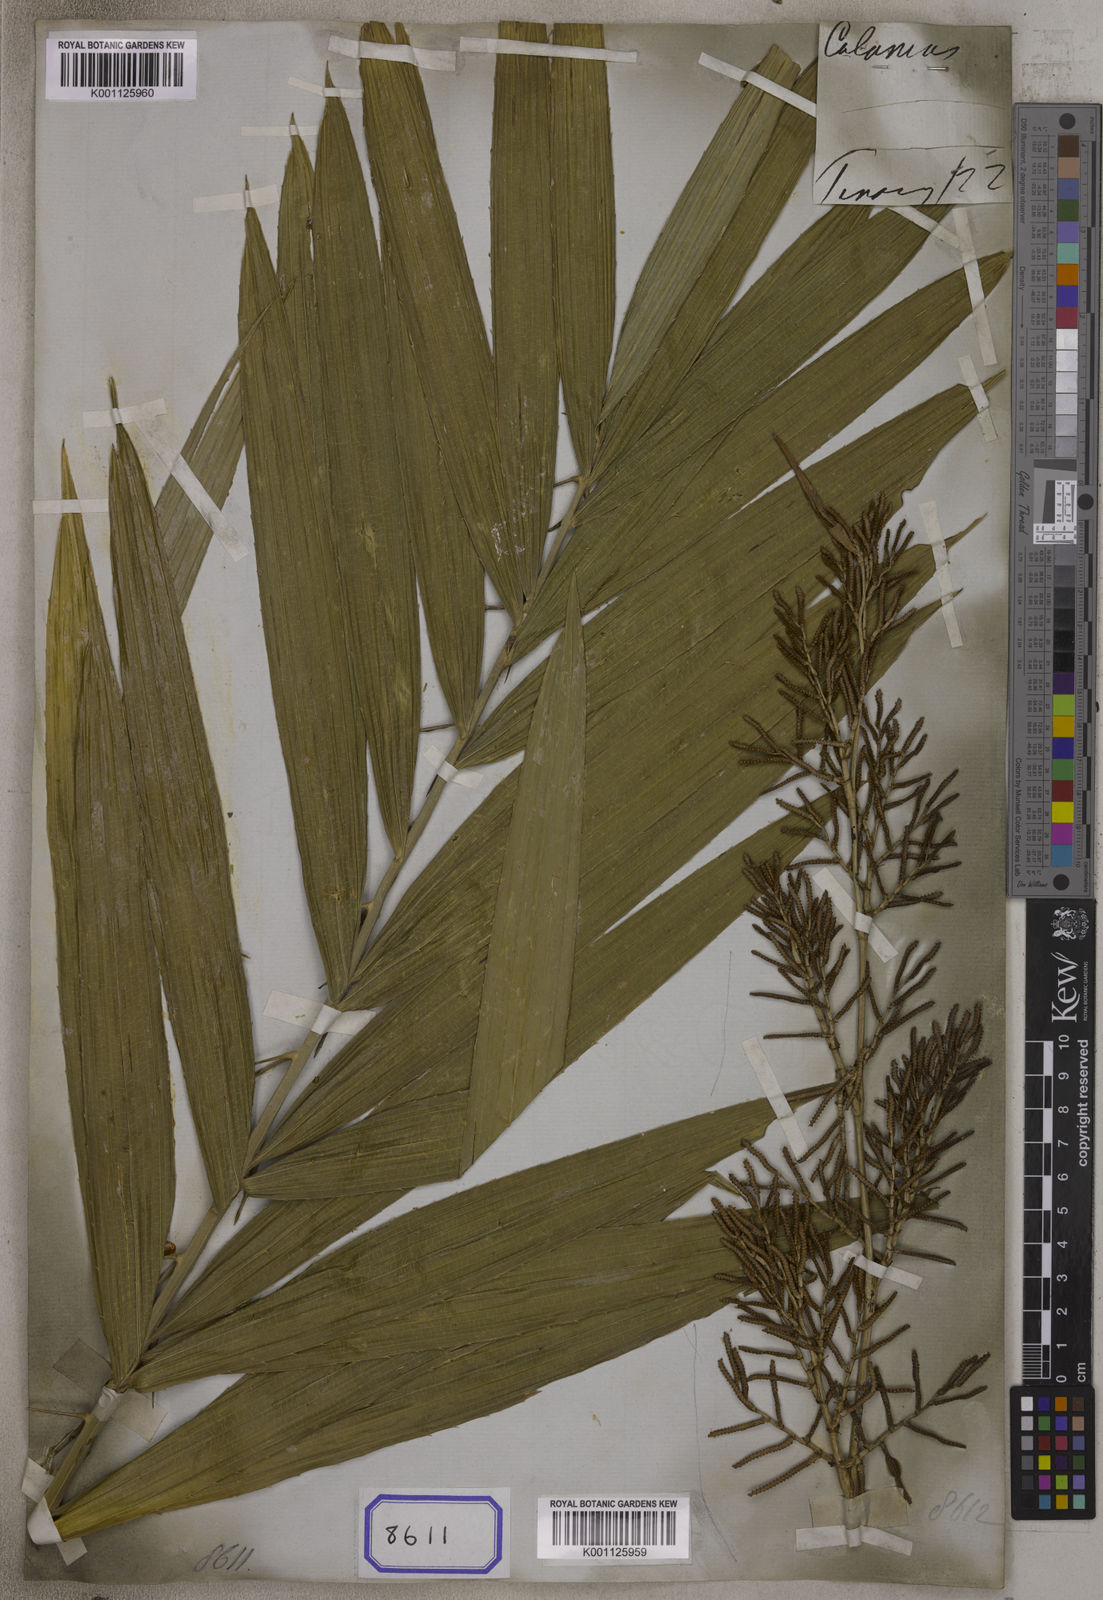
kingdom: Plantae
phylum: Tracheophyta
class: Liliopsida
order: Arecales
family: Arecaceae
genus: Calamus
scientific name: Calamus
